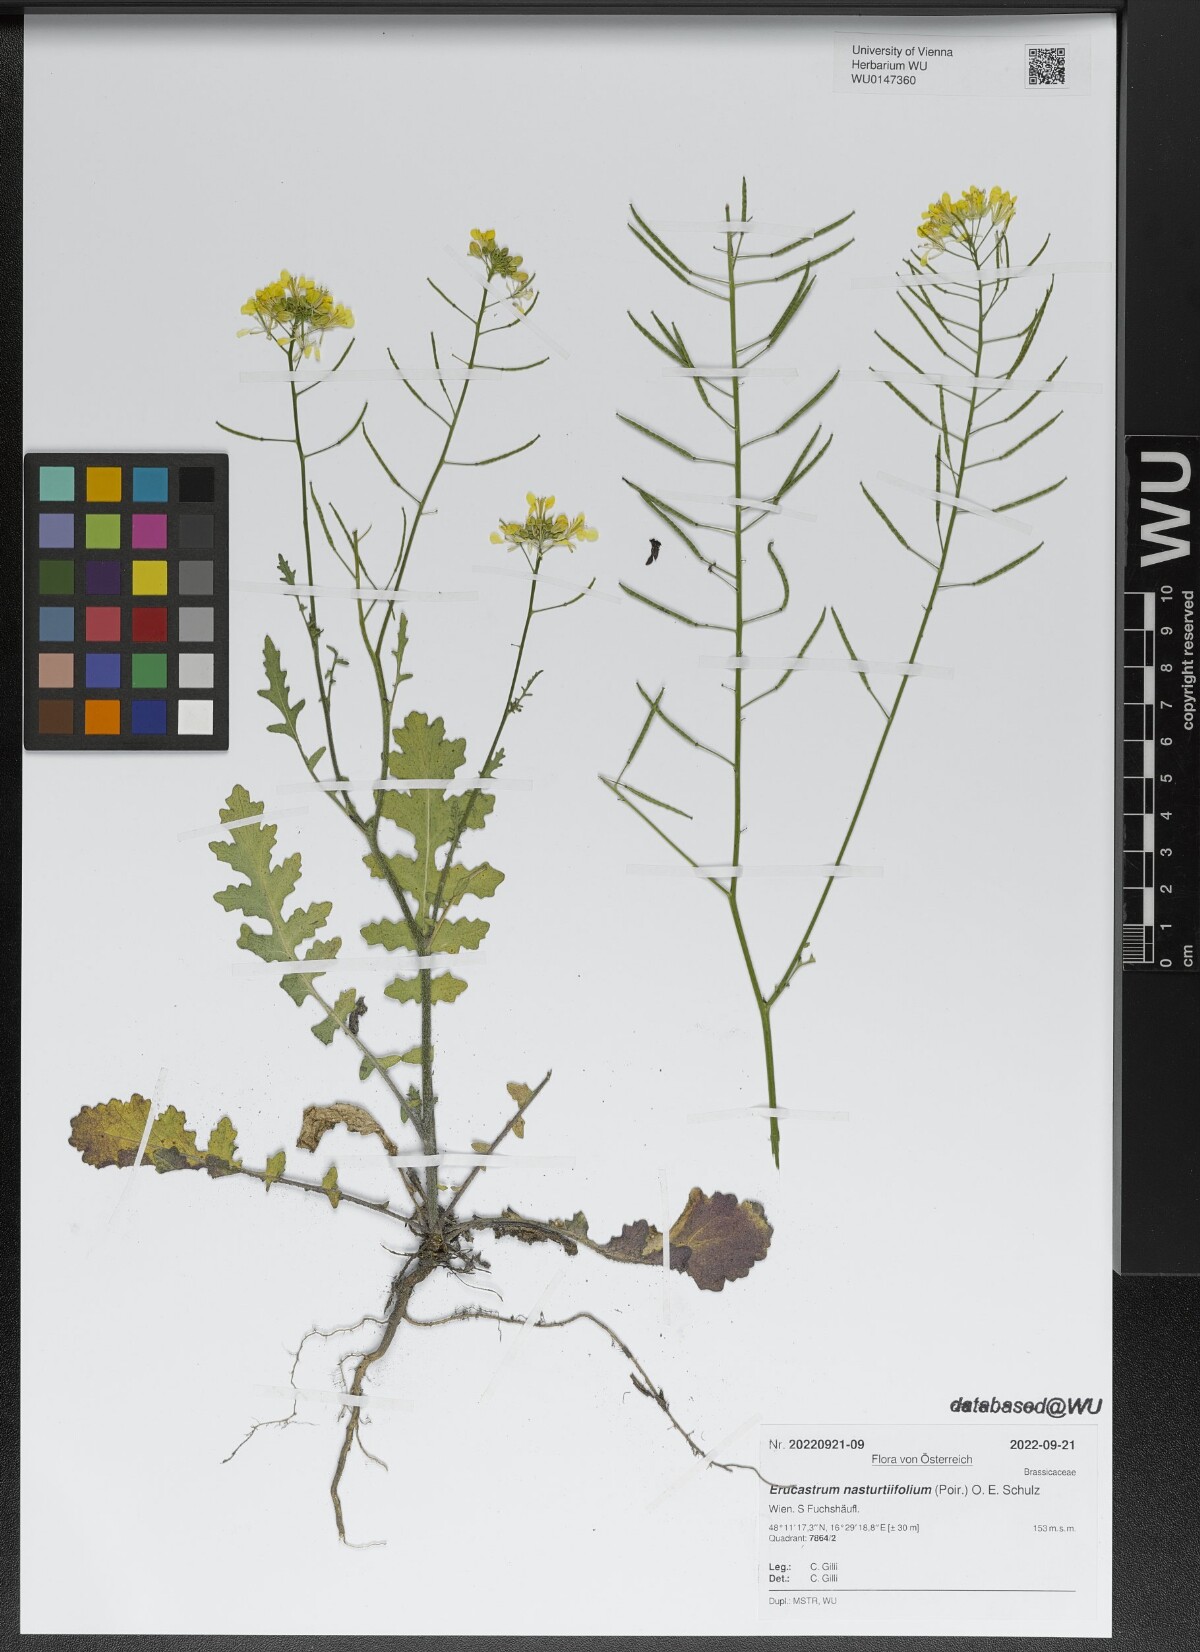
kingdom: Plantae
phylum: Tracheophyta
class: Magnoliopsida
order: Brassicales
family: Brassicaceae
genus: Erucastrum
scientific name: Erucastrum nasturtiifolium
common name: Watercress-leaf rocket
